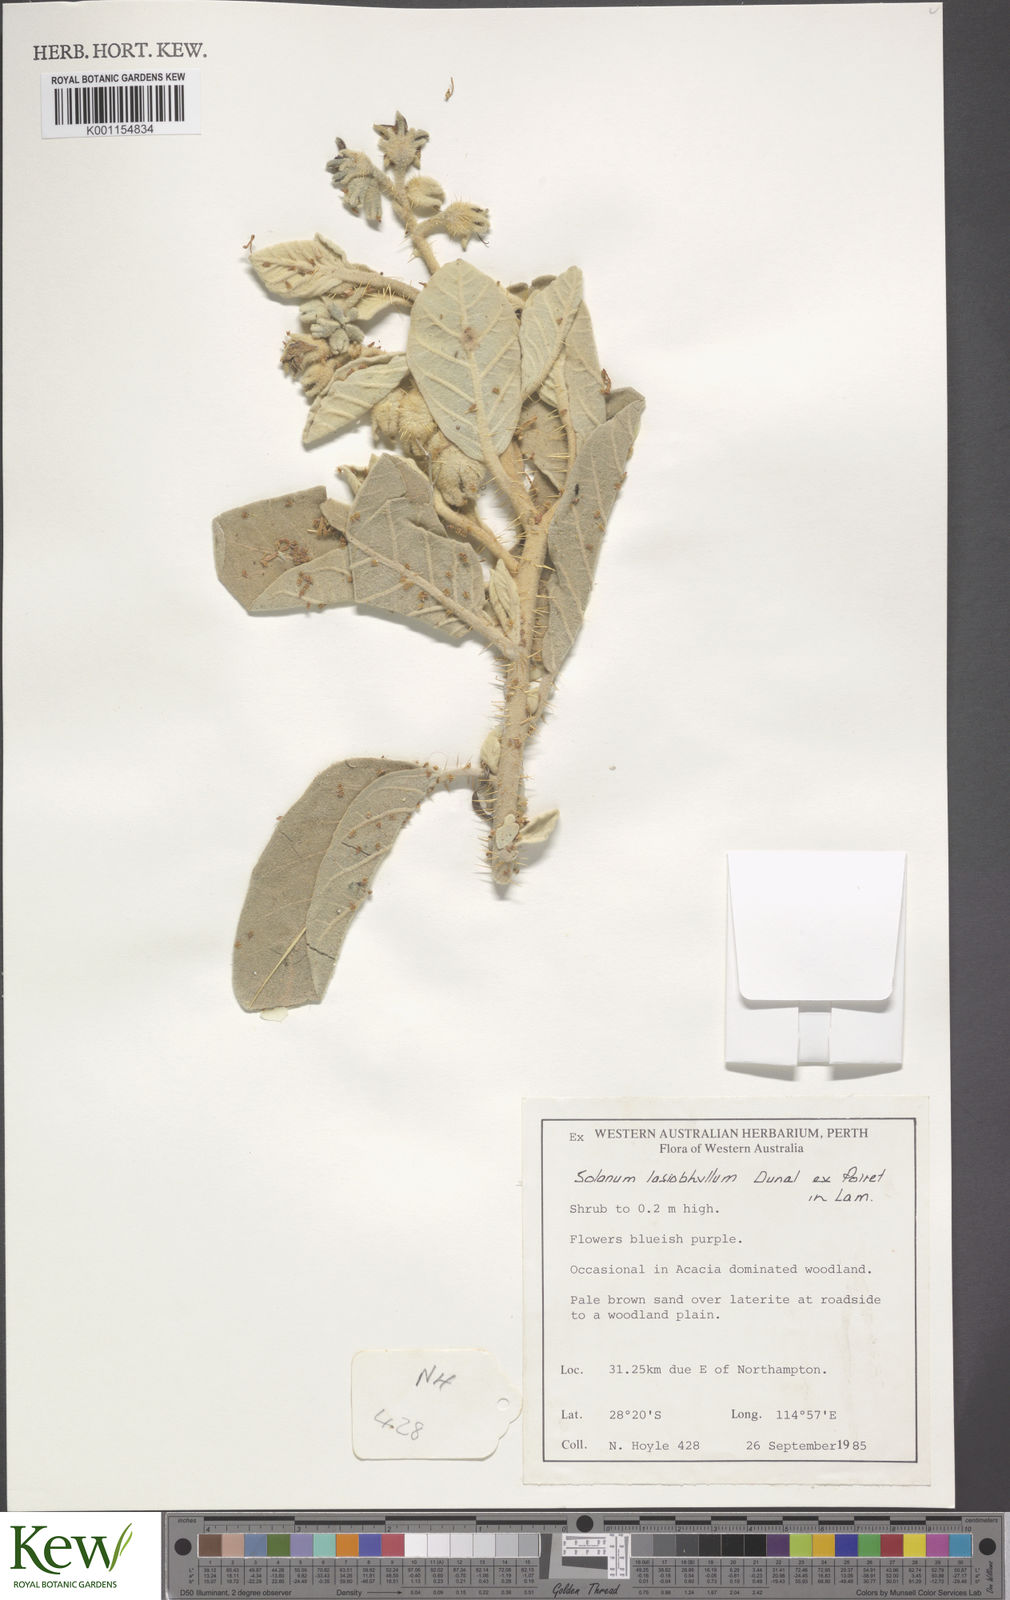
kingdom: Plantae
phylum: Tracheophyta
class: Magnoliopsida
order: Solanales
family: Solanaceae
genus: Solanum
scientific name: Solanum lasiophyllum
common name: Flannelbush
